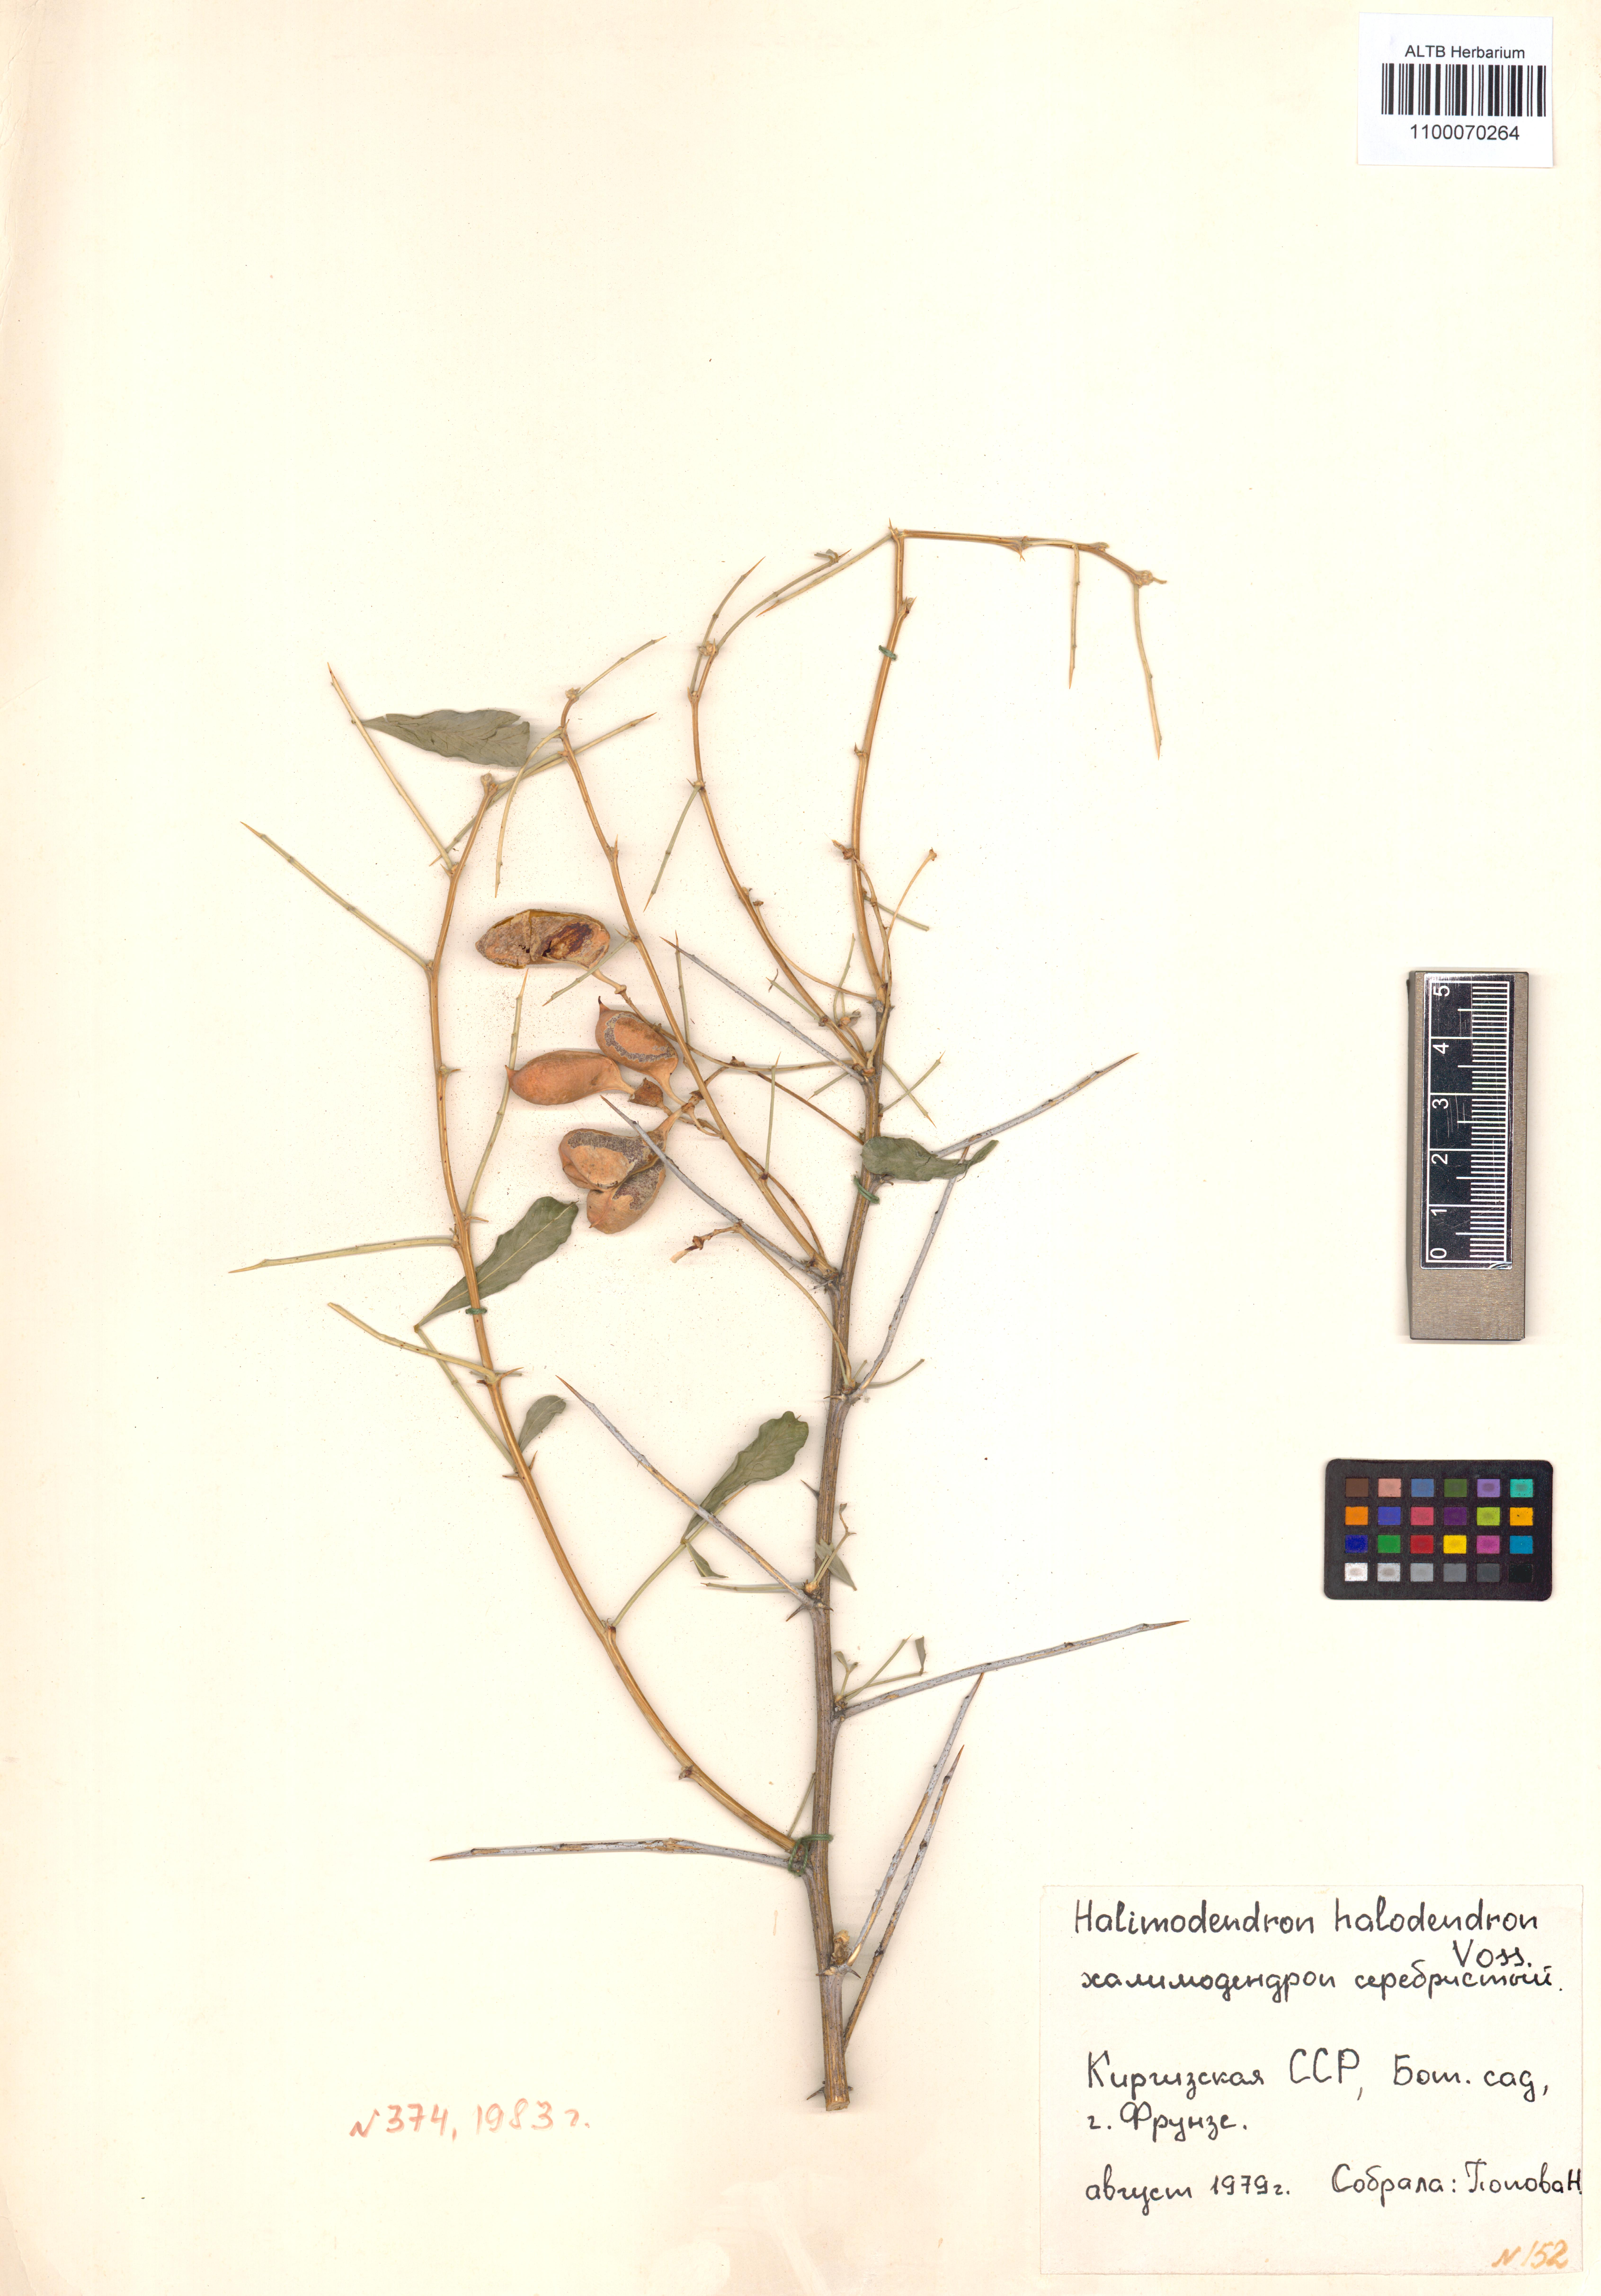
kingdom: Plantae
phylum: Tracheophyta
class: Magnoliopsida
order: Fabales
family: Fabaceae
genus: Caragana
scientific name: Caragana halodendron
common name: Siberian salt-tree
